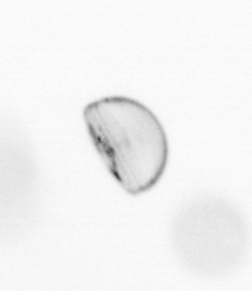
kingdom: Chromista
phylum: Ochrophyta
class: Bacillariophyceae
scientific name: Bacillariophyceae
